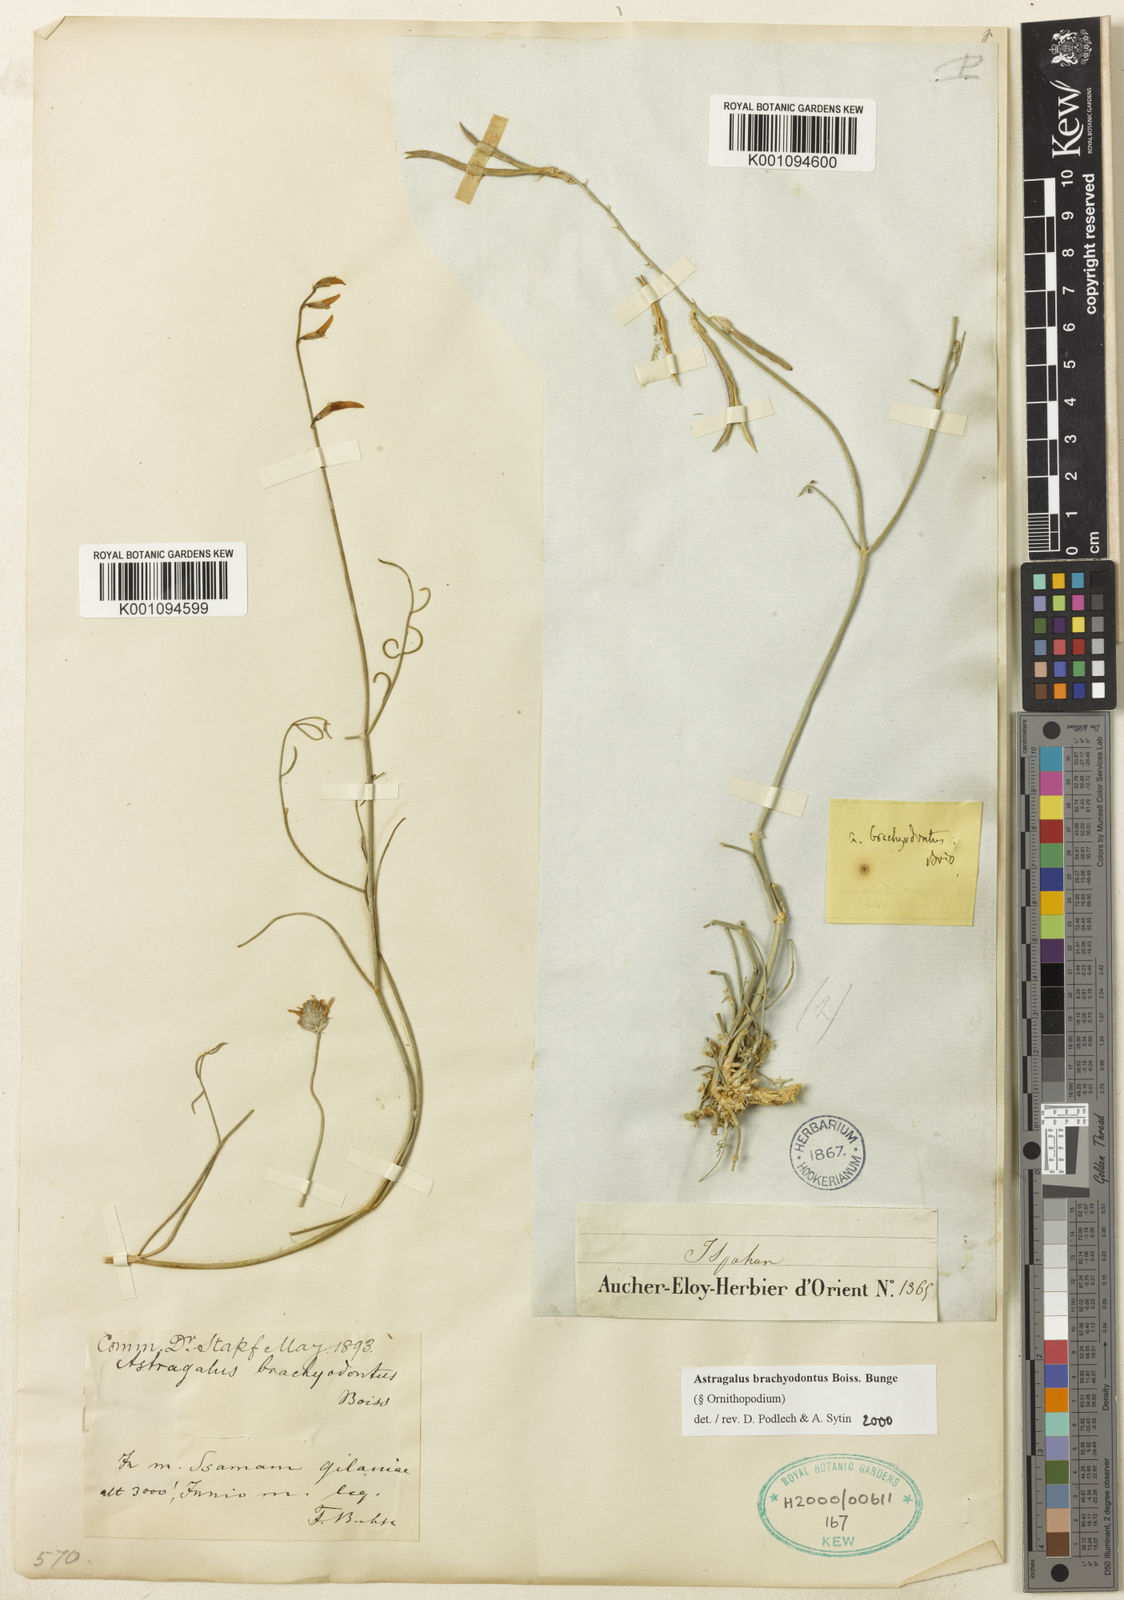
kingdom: Plantae
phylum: Tracheophyta
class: Magnoliopsida
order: Fabales
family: Fabaceae
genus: Astragalus
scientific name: Astragalus
